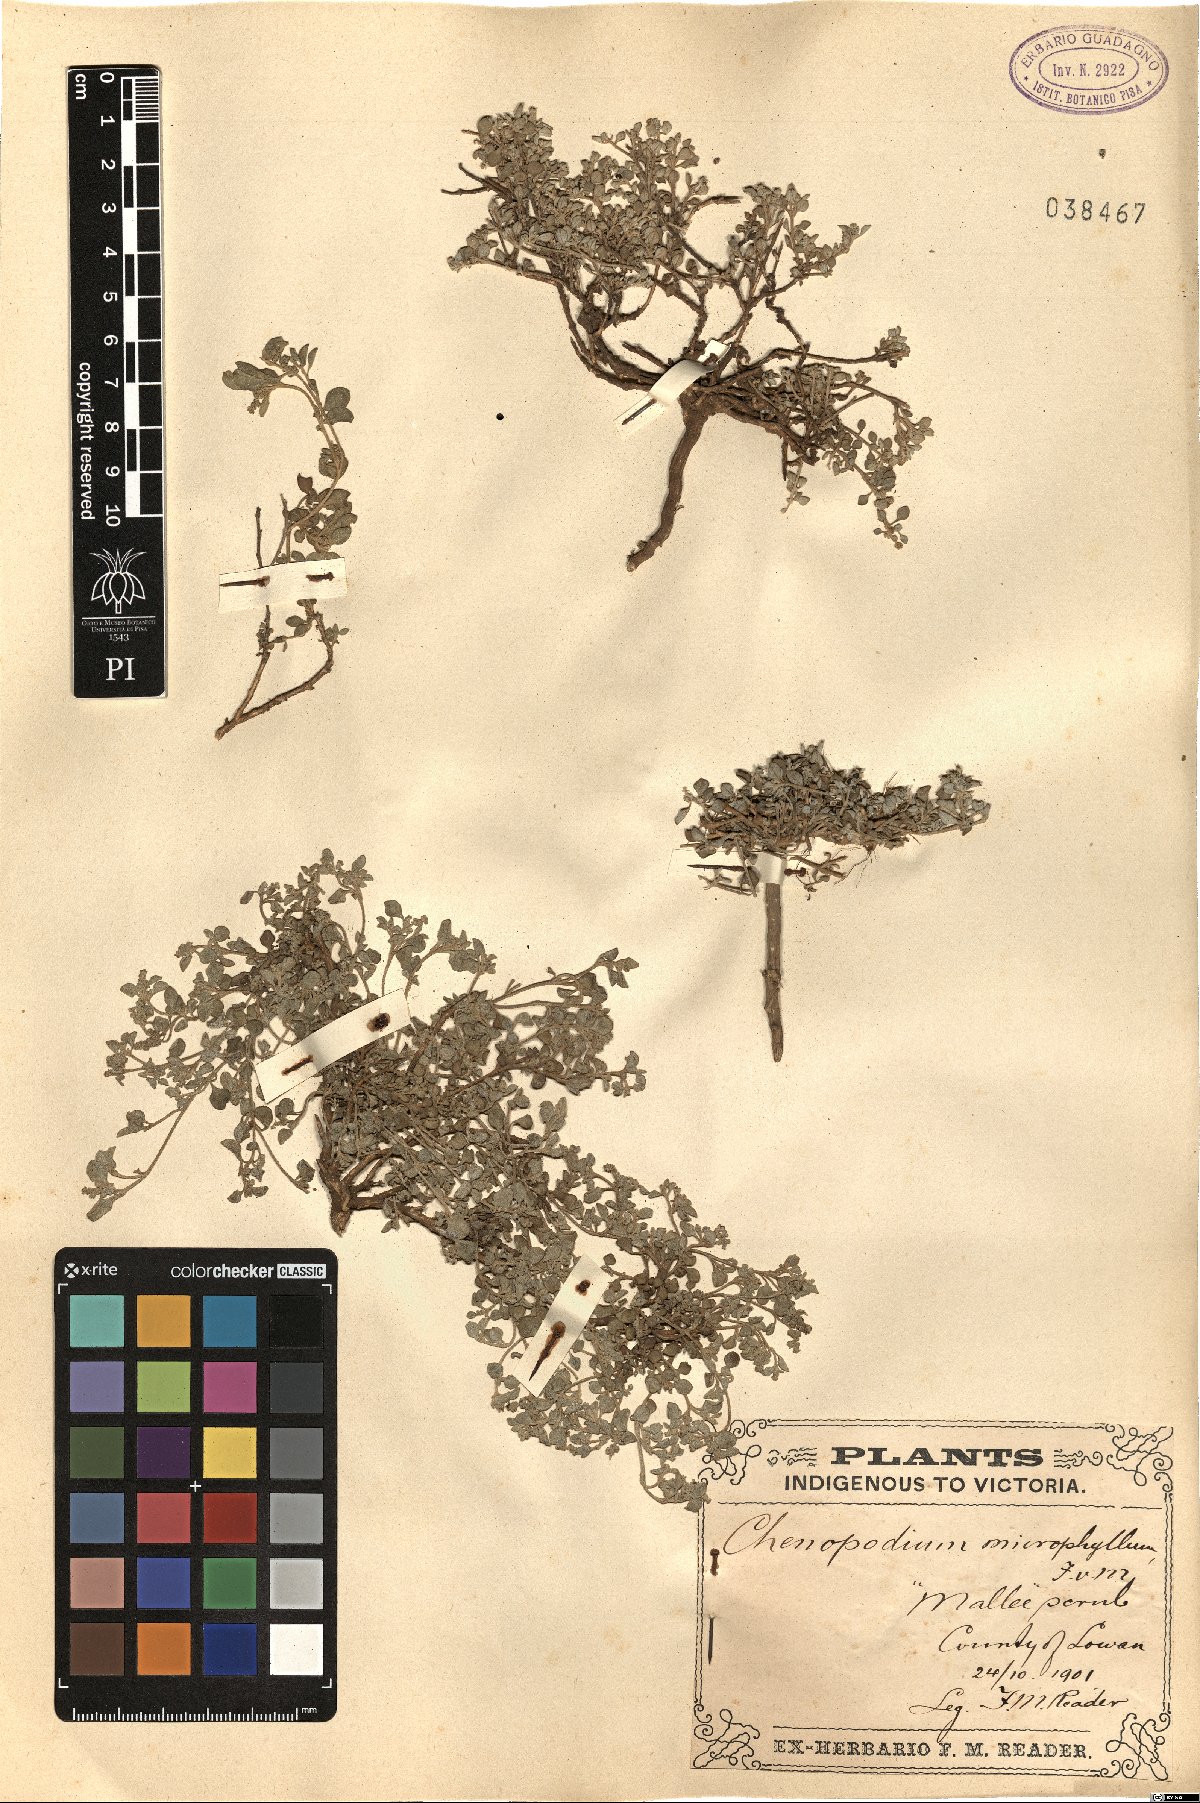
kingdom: Plantae
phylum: Tracheophyta
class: Magnoliopsida
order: Caryophyllales
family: Amaranthaceae
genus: Exomis
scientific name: Exomis microphylla
